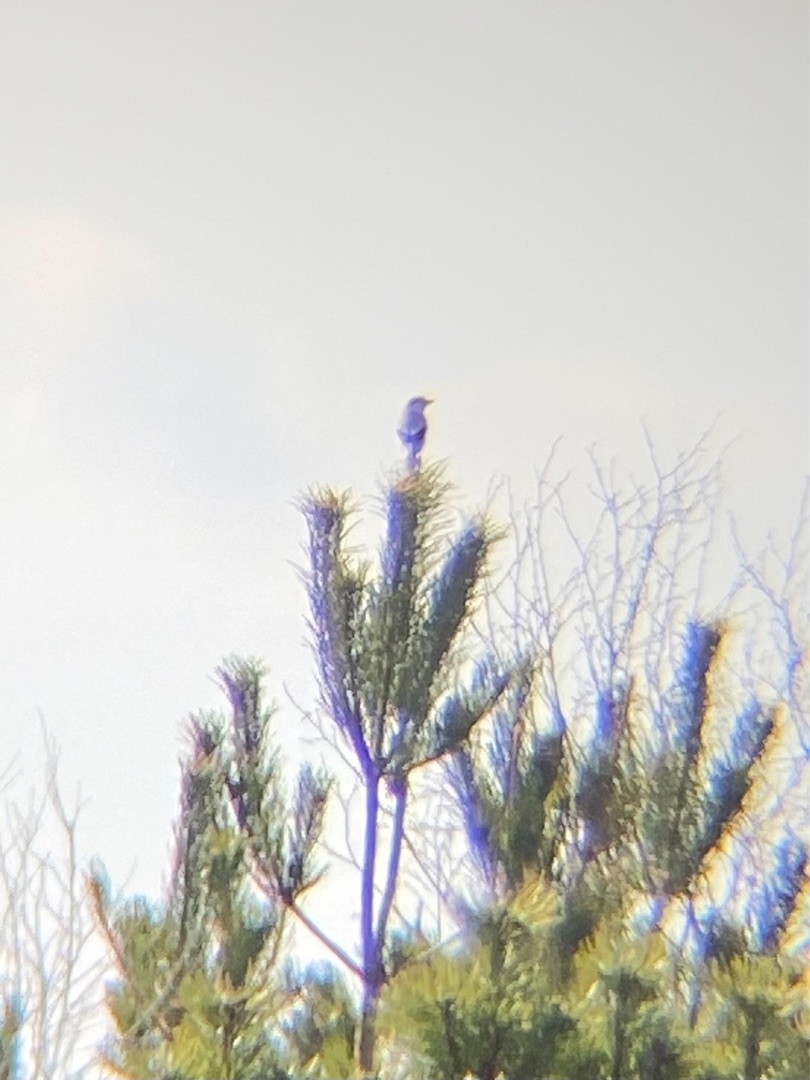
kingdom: Animalia
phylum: Chordata
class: Aves
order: Passeriformes
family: Laniidae
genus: Lanius
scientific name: Lanius excubitor
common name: Stor tornskade
